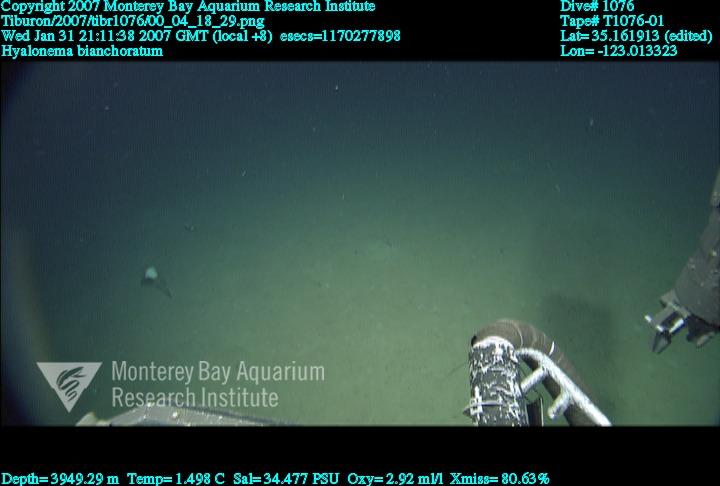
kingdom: Animalia
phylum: Porifera
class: Hexactinellida
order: Amphidiscosida
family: Hyalonematidae
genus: Hyalonema
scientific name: Hyalonema bianchoratum
